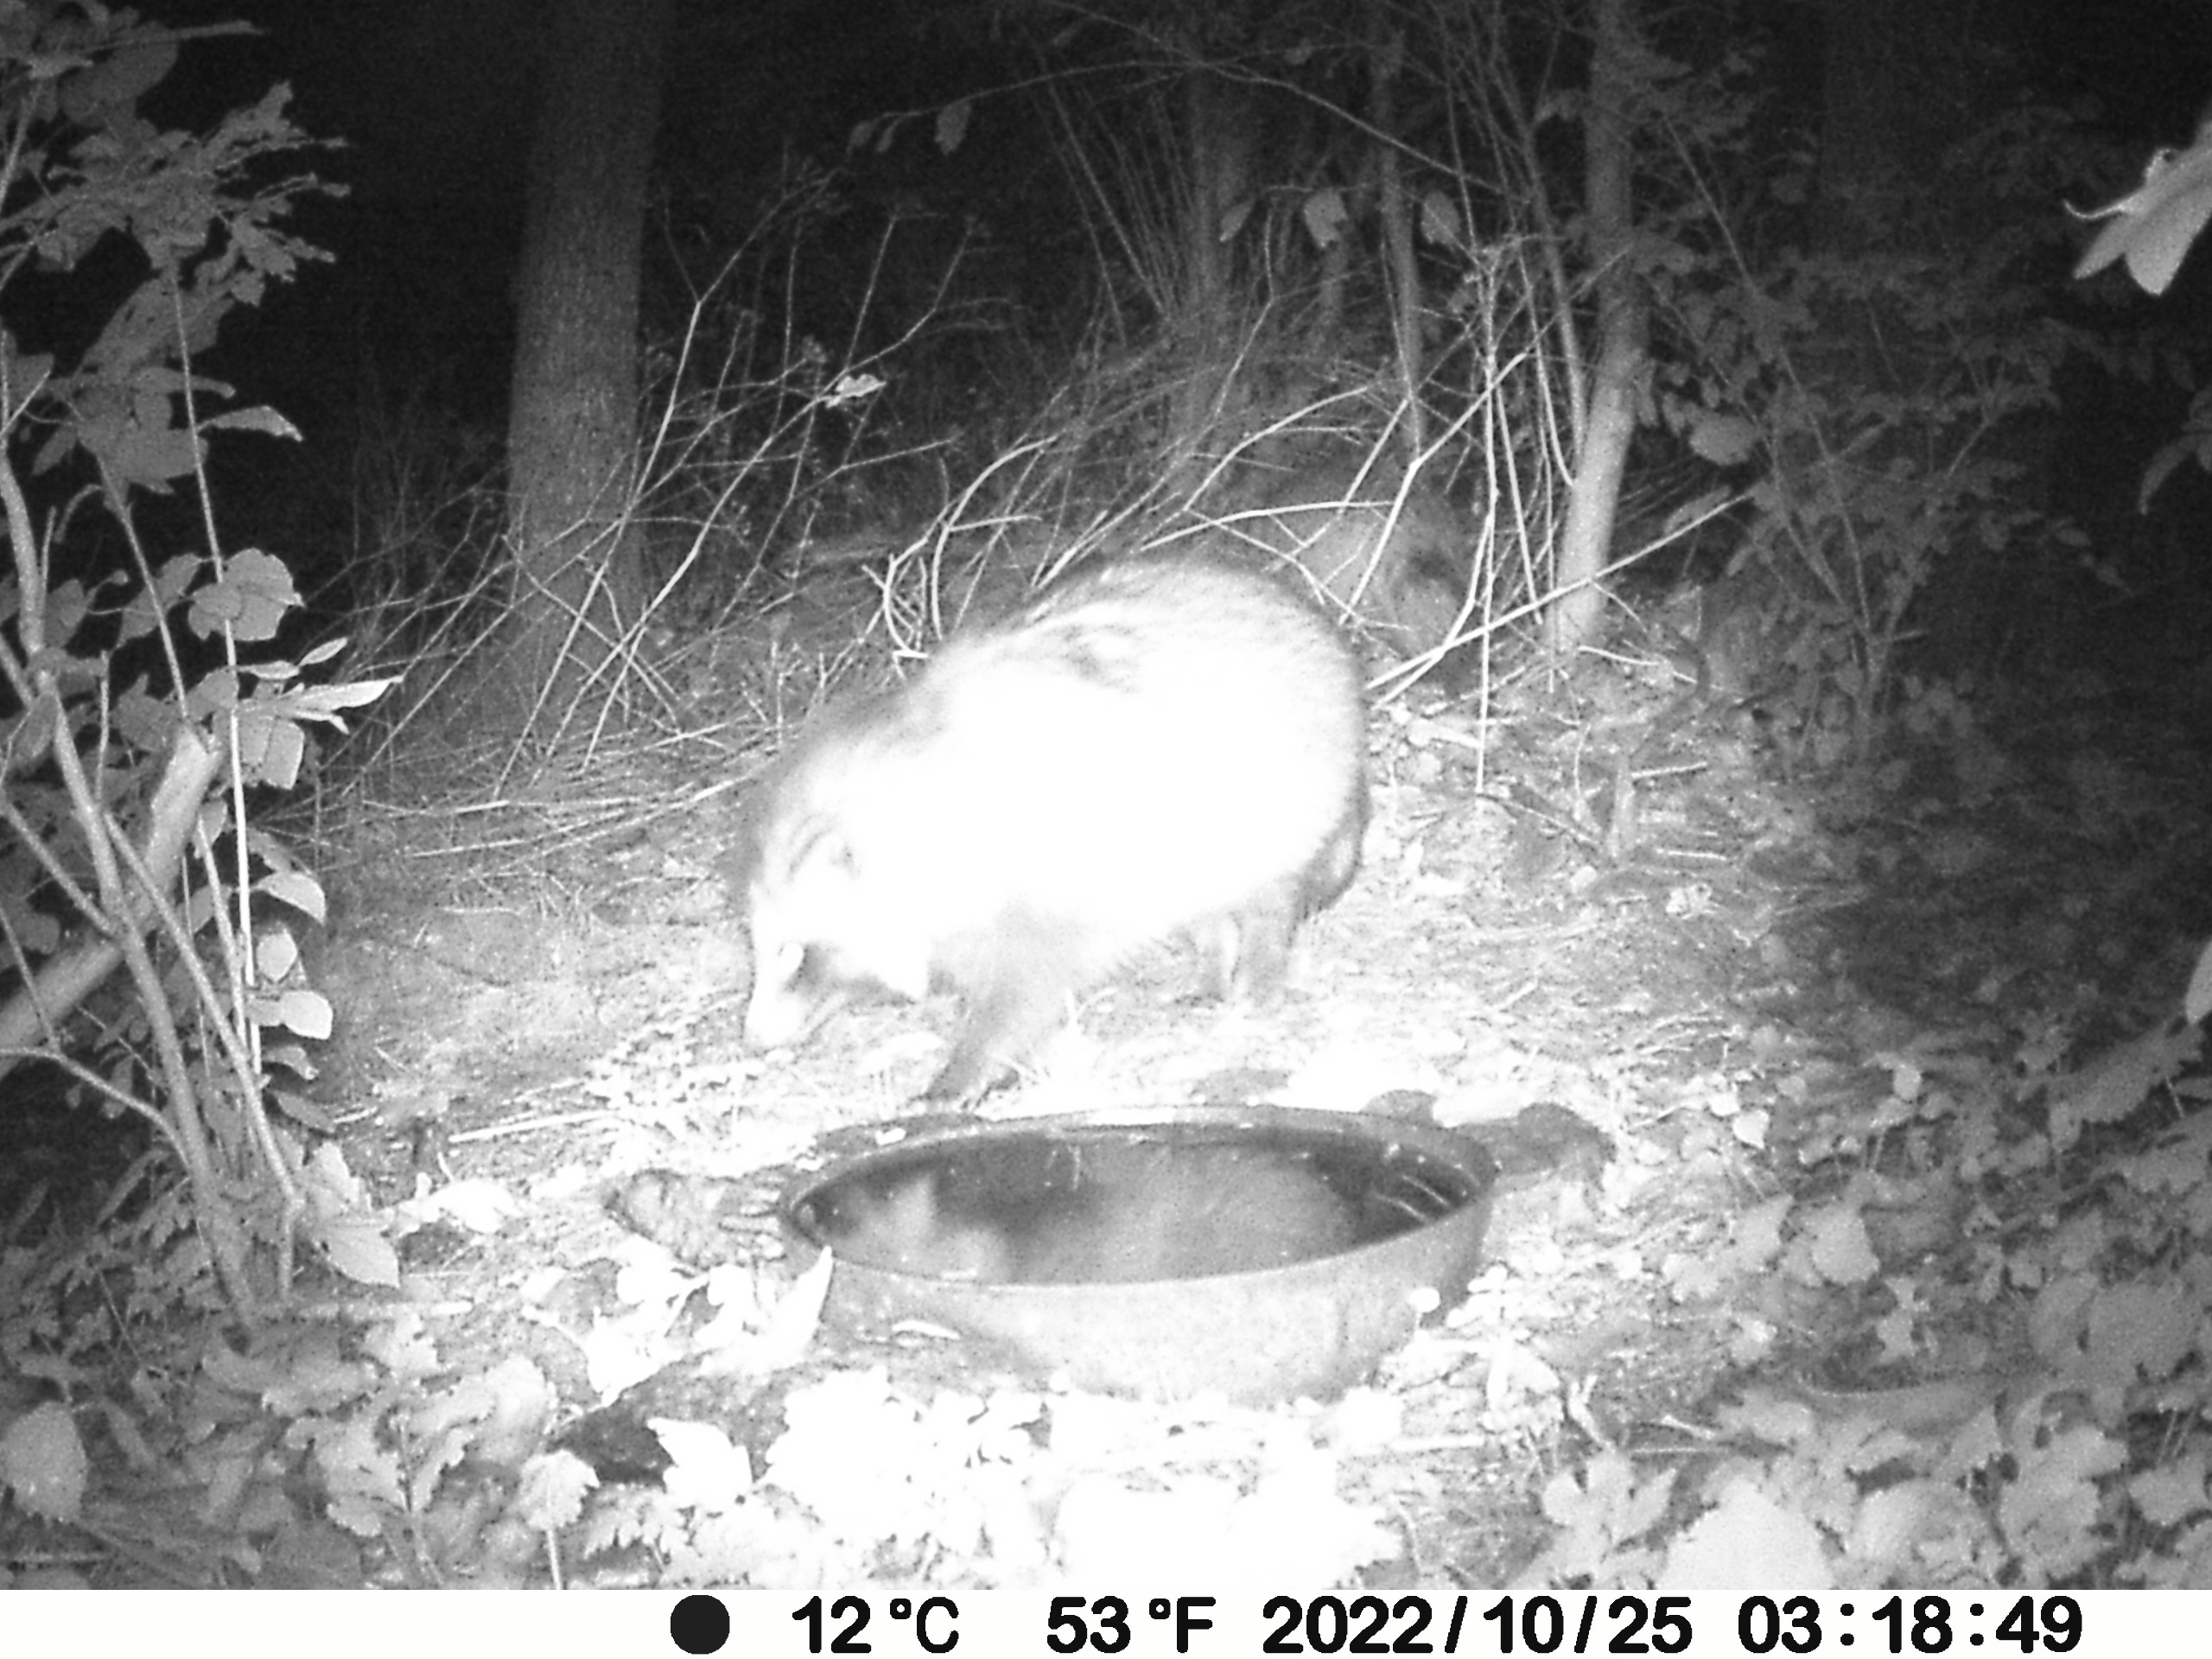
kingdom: Animalia
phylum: Chordata
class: Mammalia
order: Carnivora
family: Canidae
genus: Nyctereutes
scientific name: Nyctereutes procyonoides
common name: Mårhund
